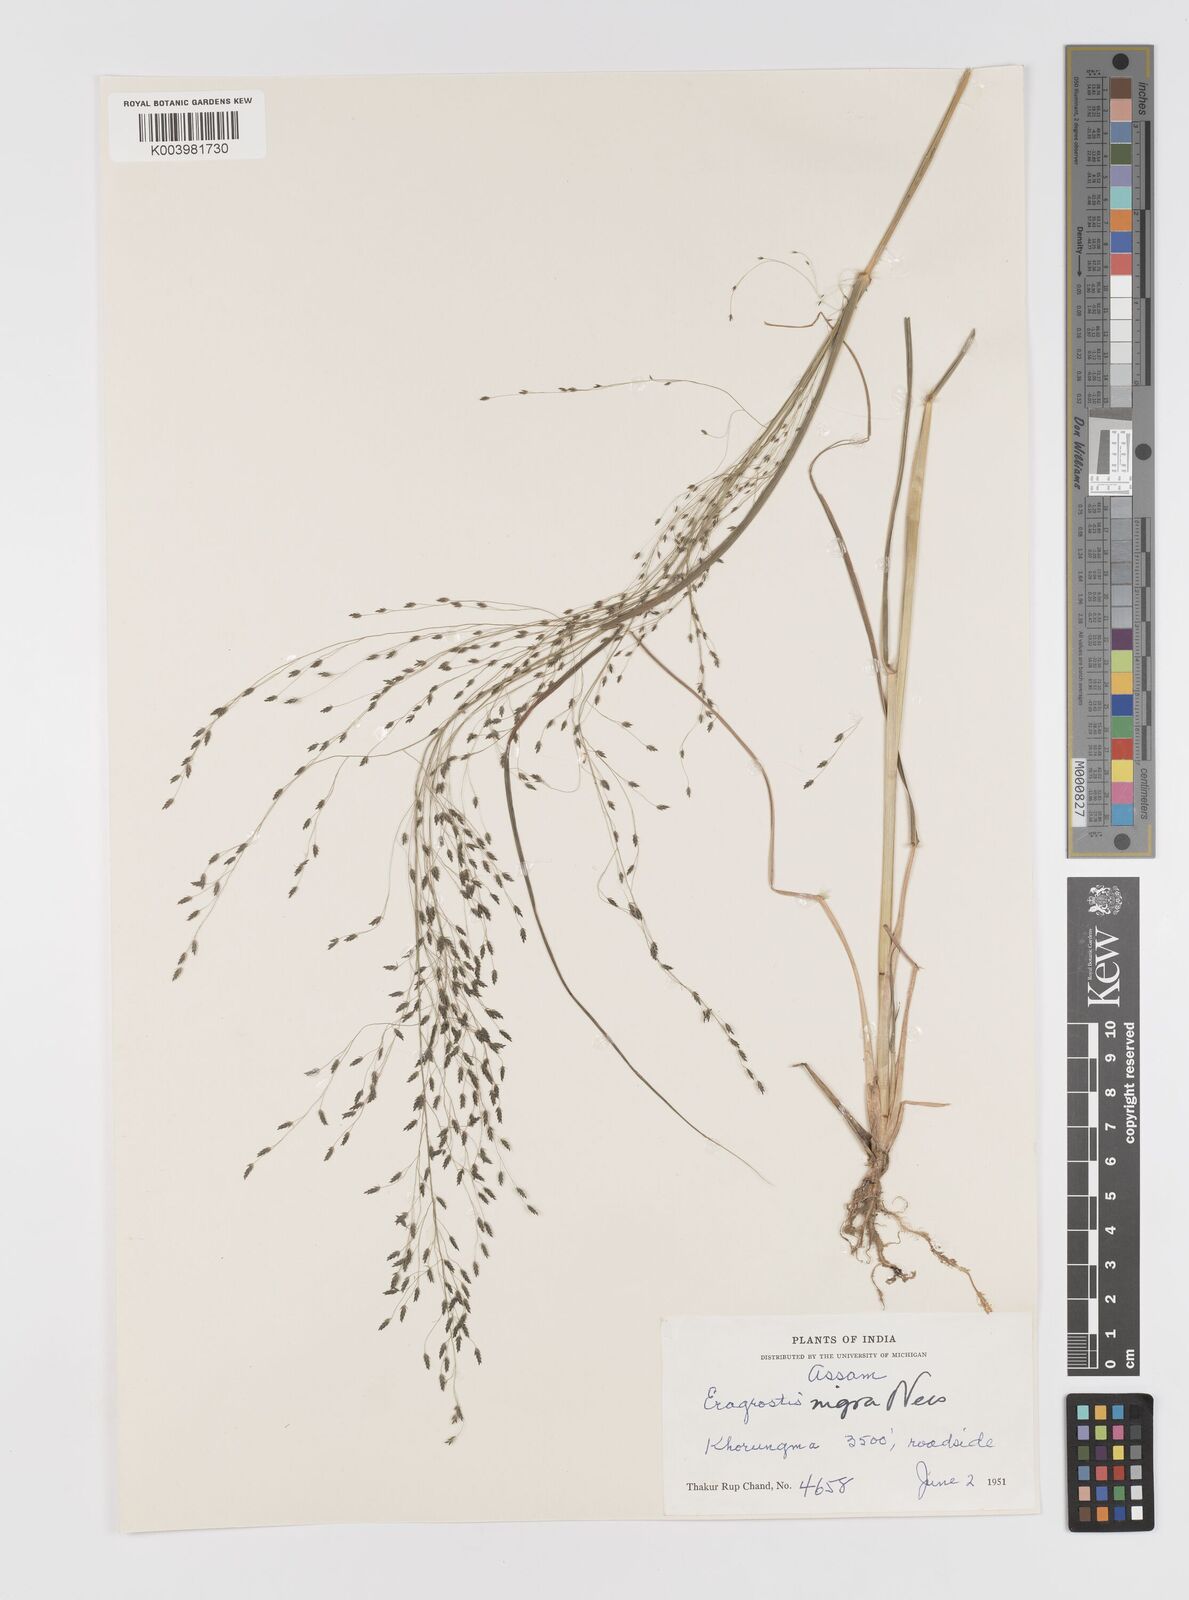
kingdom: Plantae
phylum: Tracheophyta
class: Liliopsida
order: Poales
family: Poaceae
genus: Eragrostis
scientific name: Eragrostis nigra
